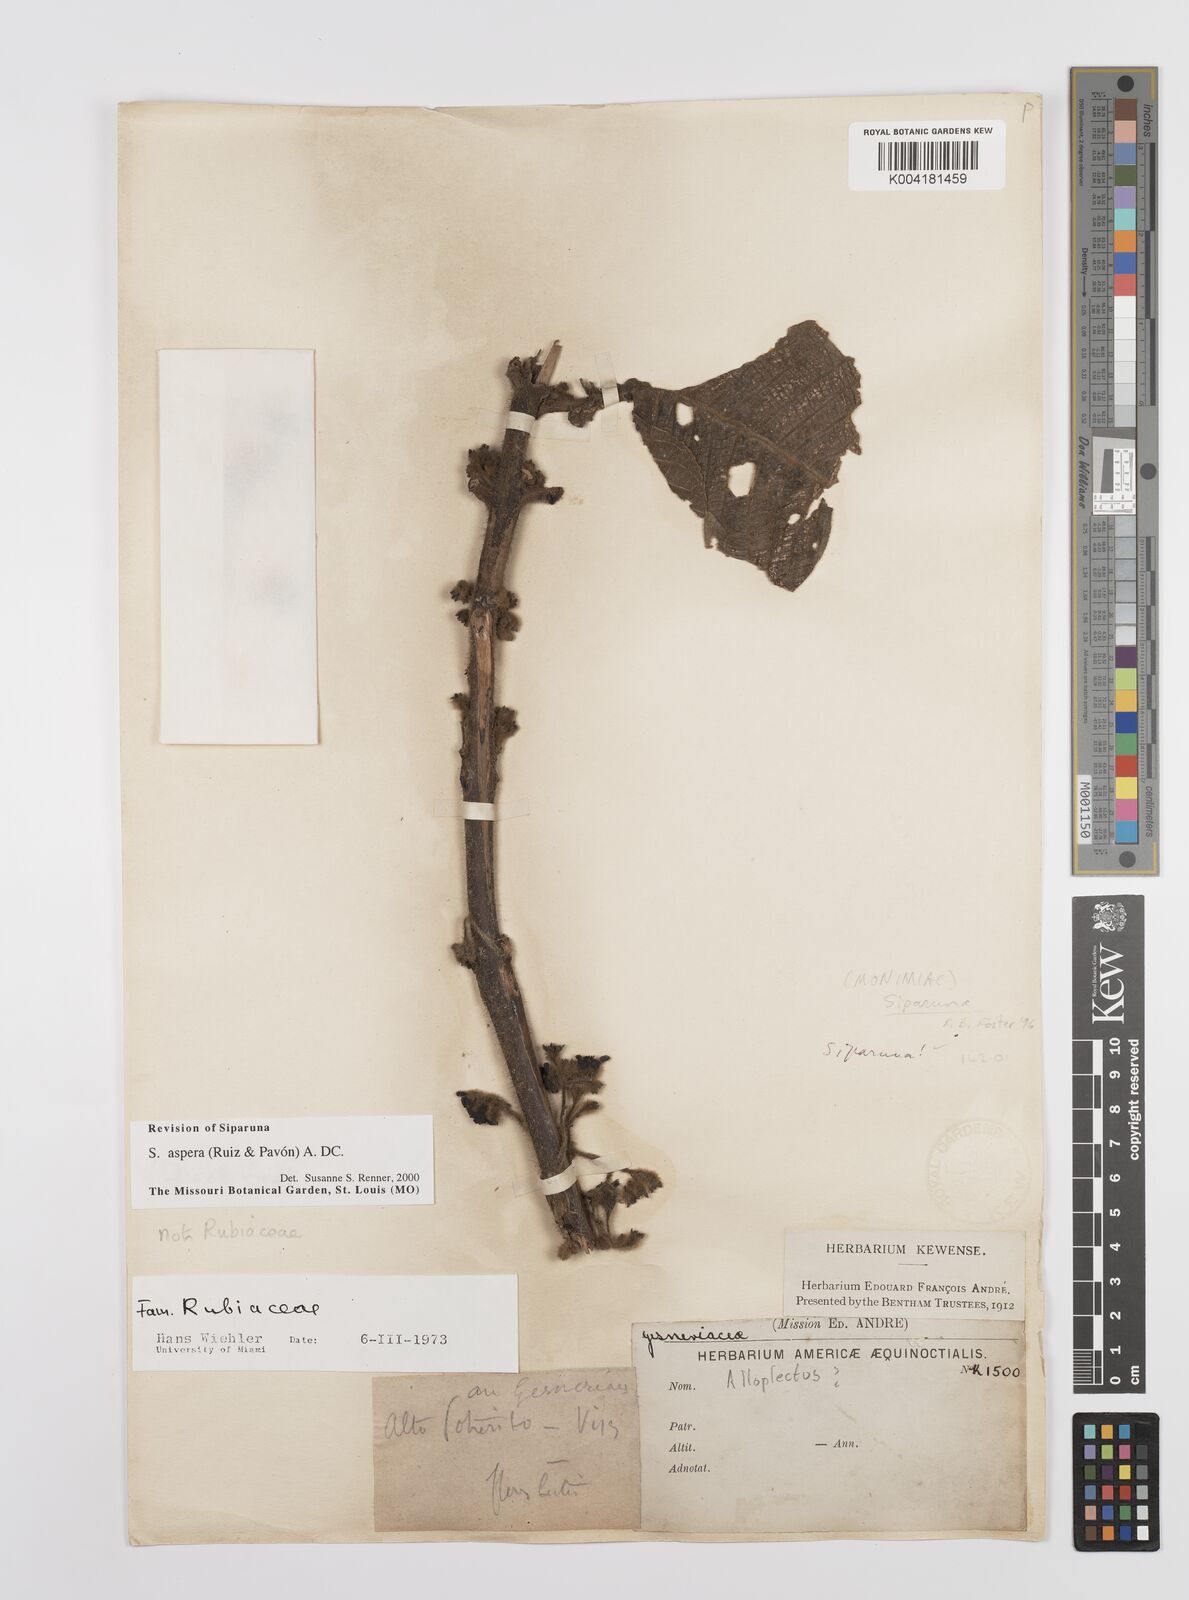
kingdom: Plantae
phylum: Tracheophyta
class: Magnoliopsida
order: Laurales
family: Siparunaceae
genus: Siparuna
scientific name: Siparuna aspera
